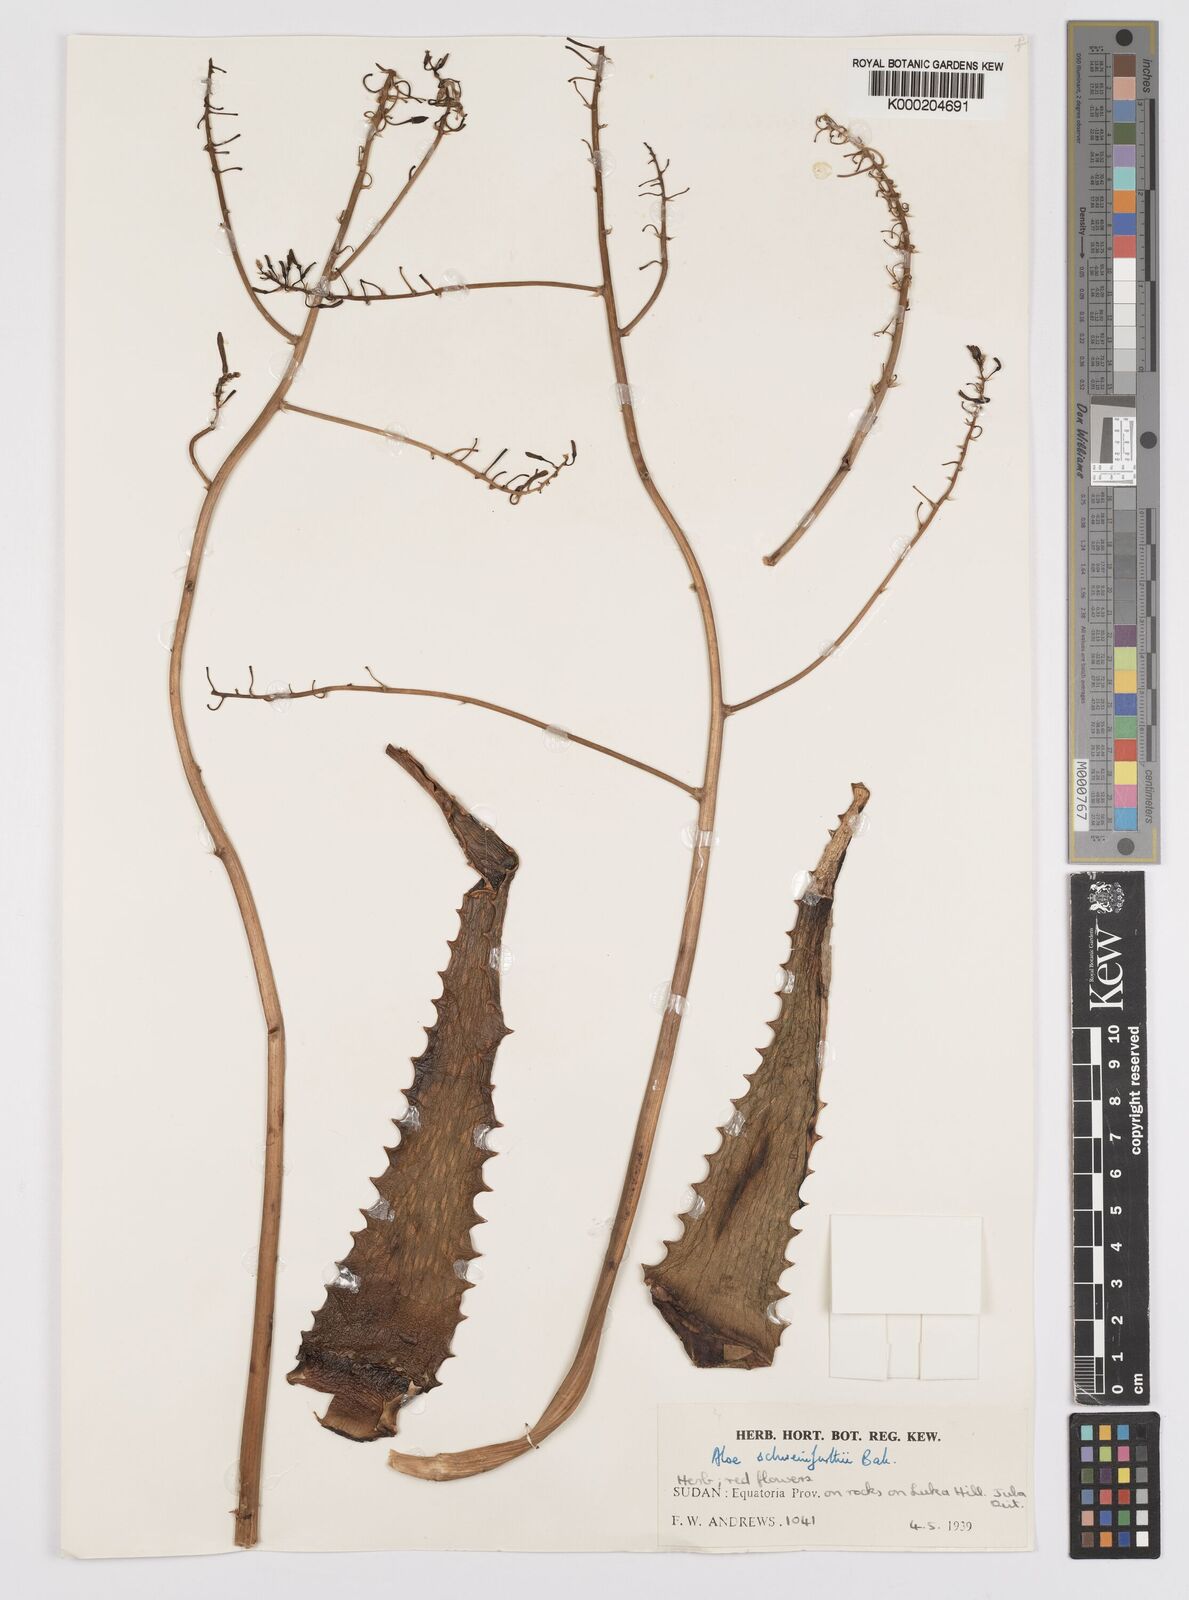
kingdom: Plantae
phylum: Tracheophyta
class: Liliopsida
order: Asparagales
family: Asphodelaceae
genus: Aloe
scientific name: Aloe schweinfurthii
